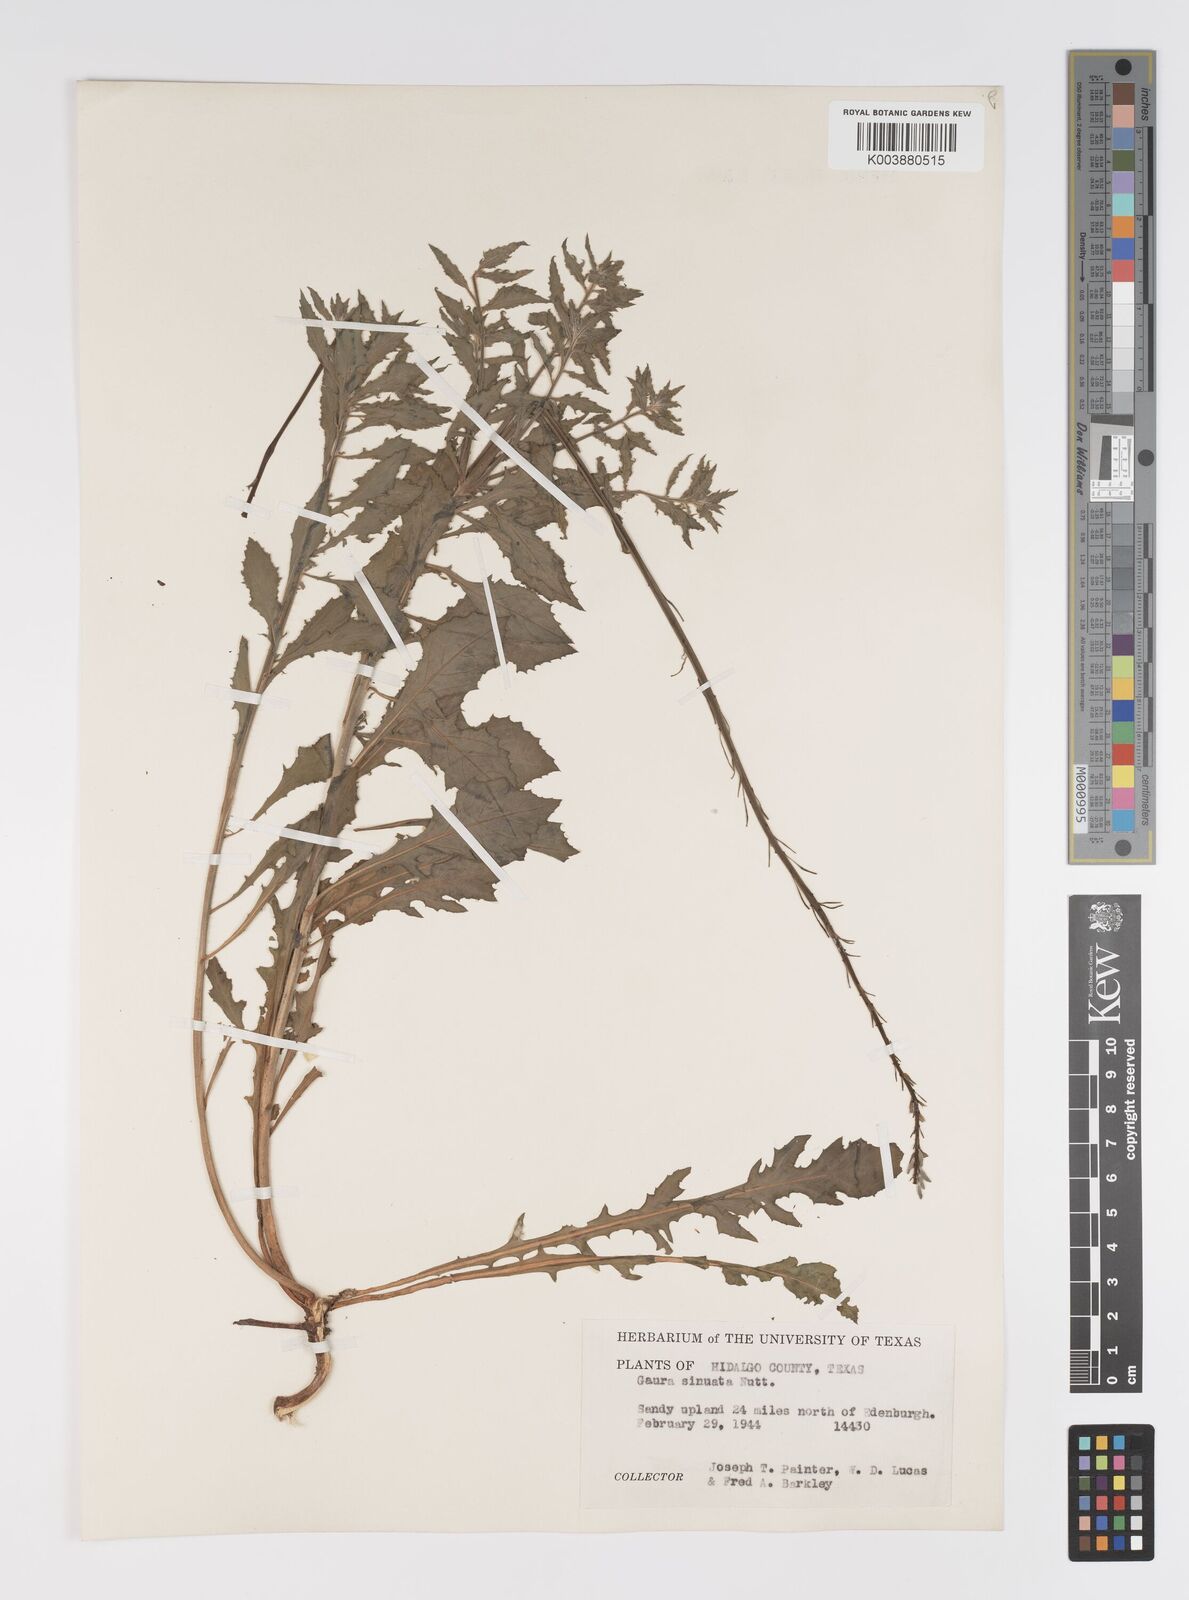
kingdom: Plantae
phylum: Tracheophyta
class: Magnoliopsida
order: Myrtales
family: Onagraceae
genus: Oenothera
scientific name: Oenothera sinuosa
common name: Wavyleaf beeblossom
